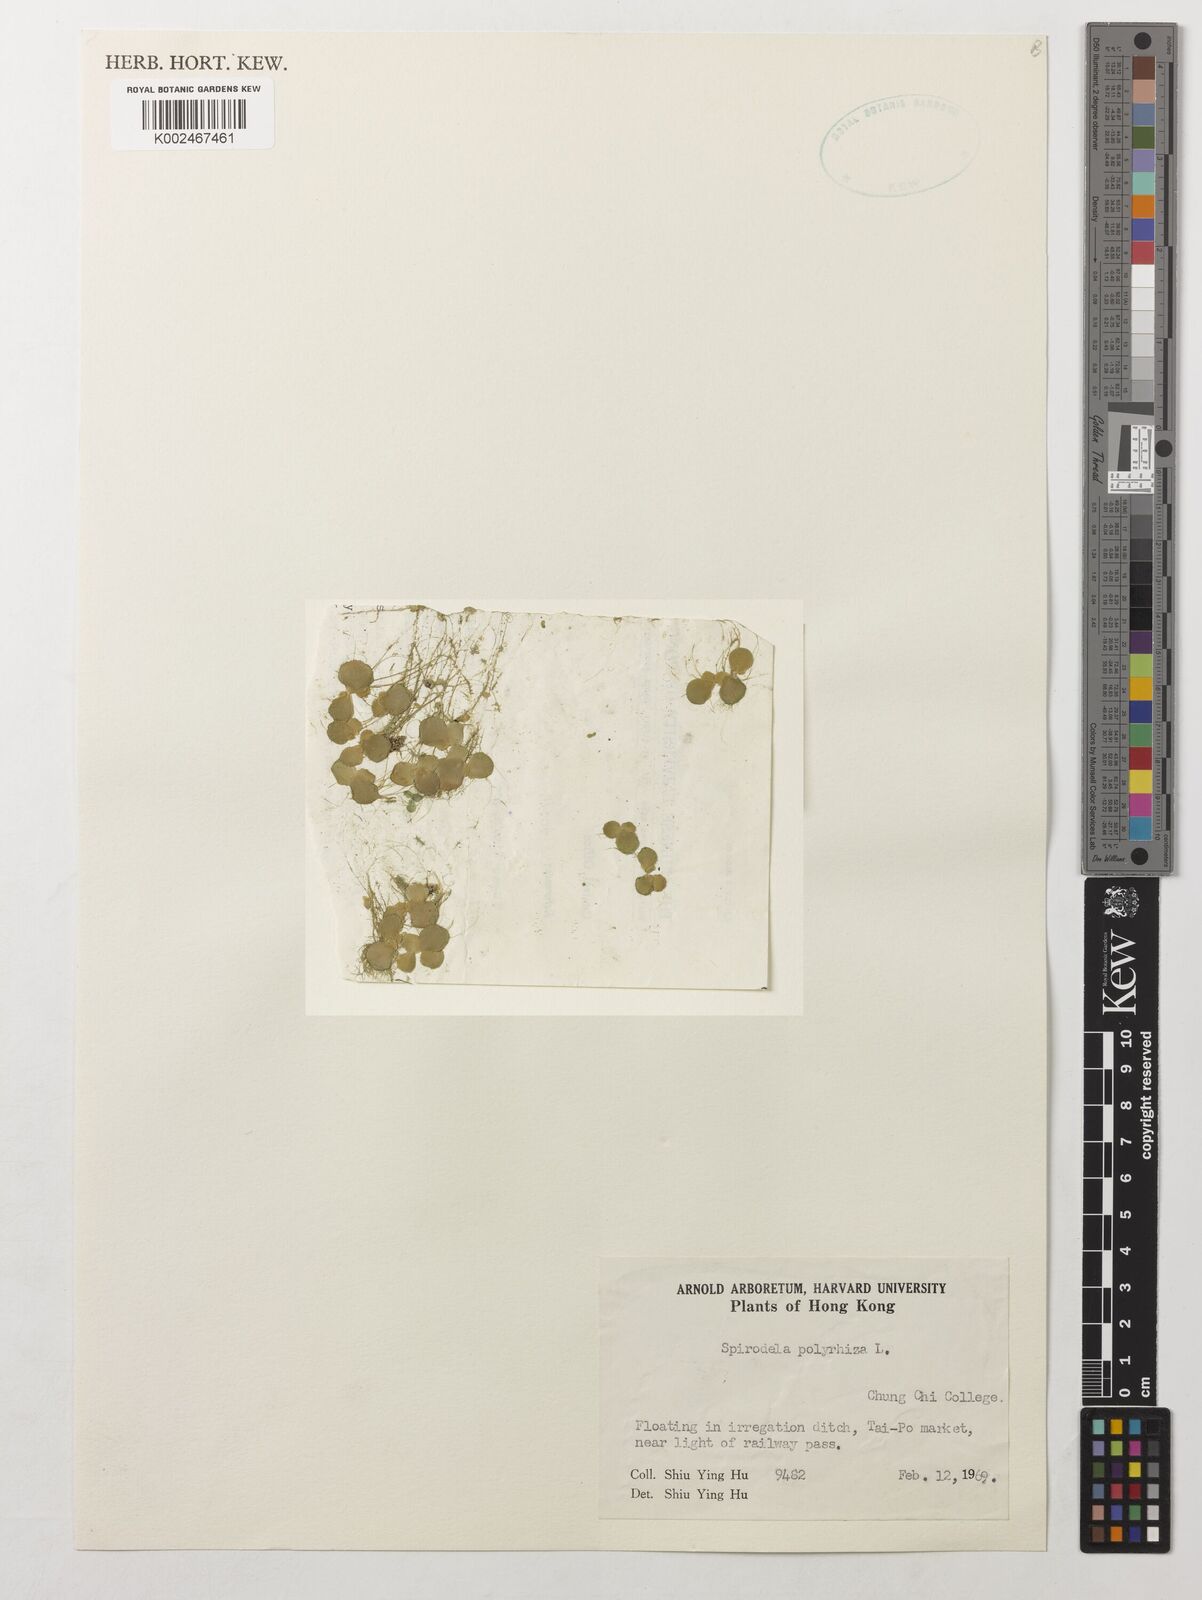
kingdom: Plantae
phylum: Tracheophyta
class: Liliopsida
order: Alismatales
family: Araceae
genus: Spirodela
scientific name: Spirodela polyrhiza
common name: Great duckweed
